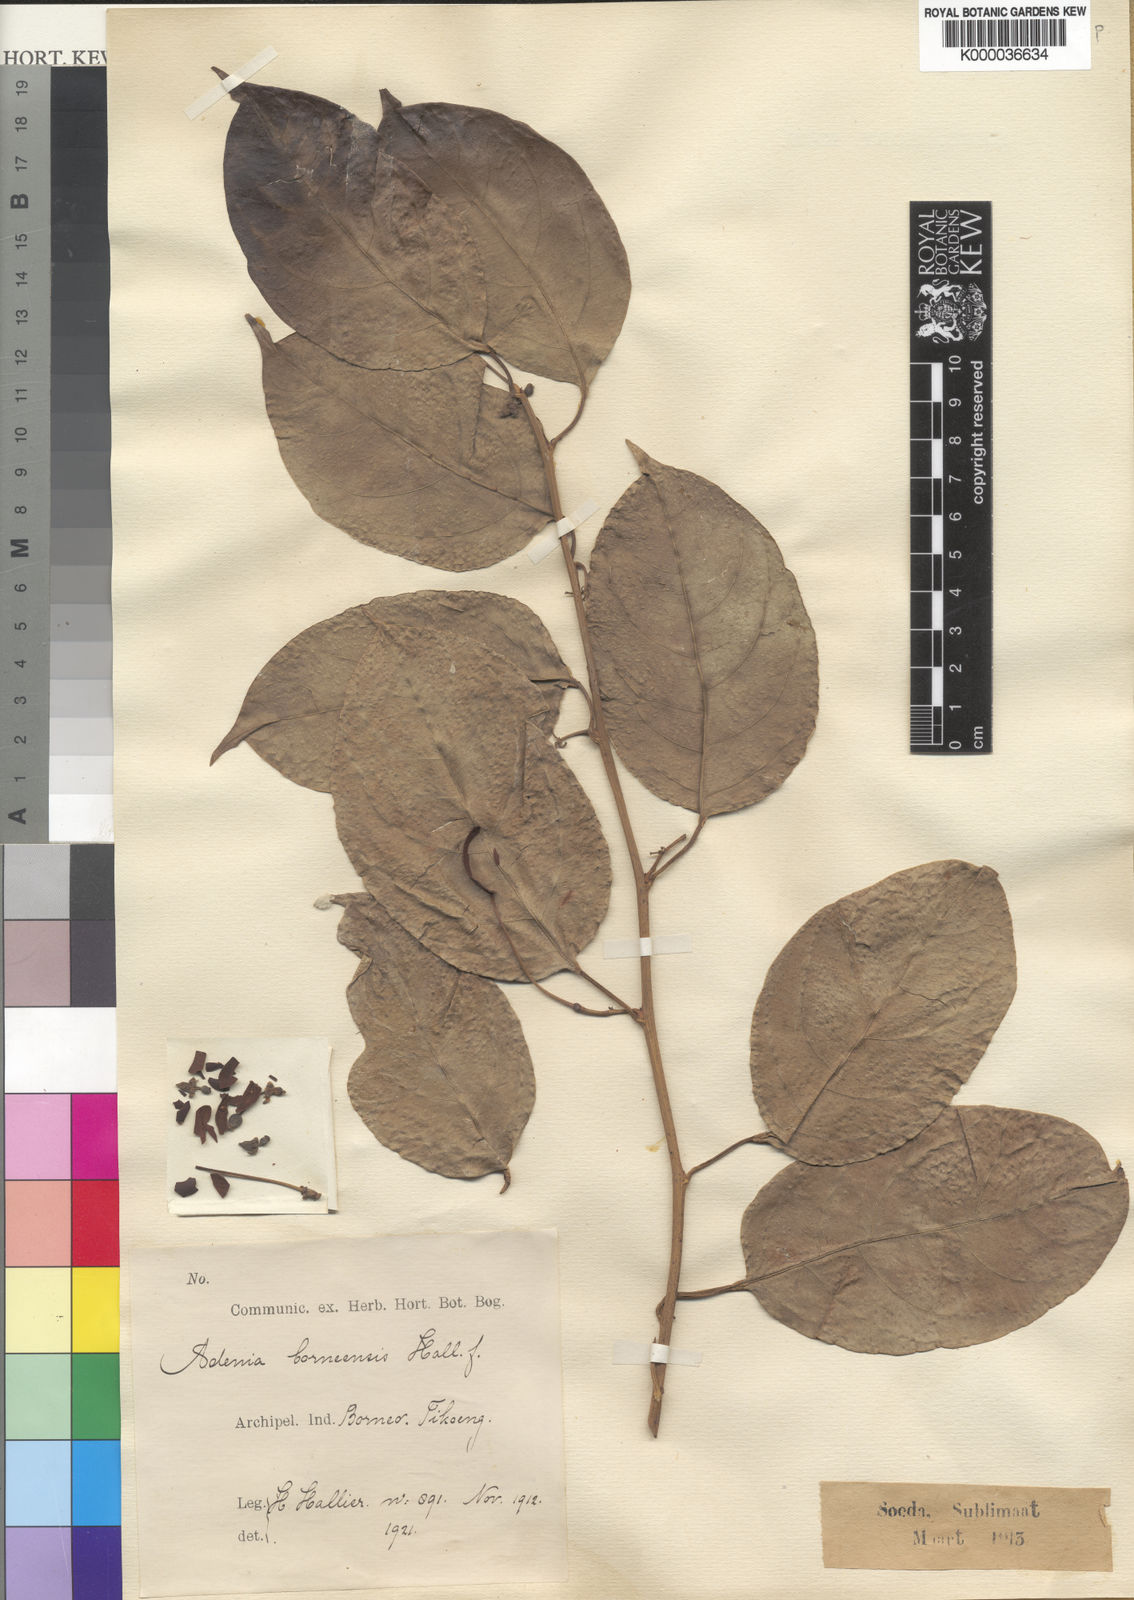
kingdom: Plantae
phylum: Tracheophyta
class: Magnoliopsida
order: Malpighiales
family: Passifloraceae
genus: Adenia
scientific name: Adenia macrophylla
